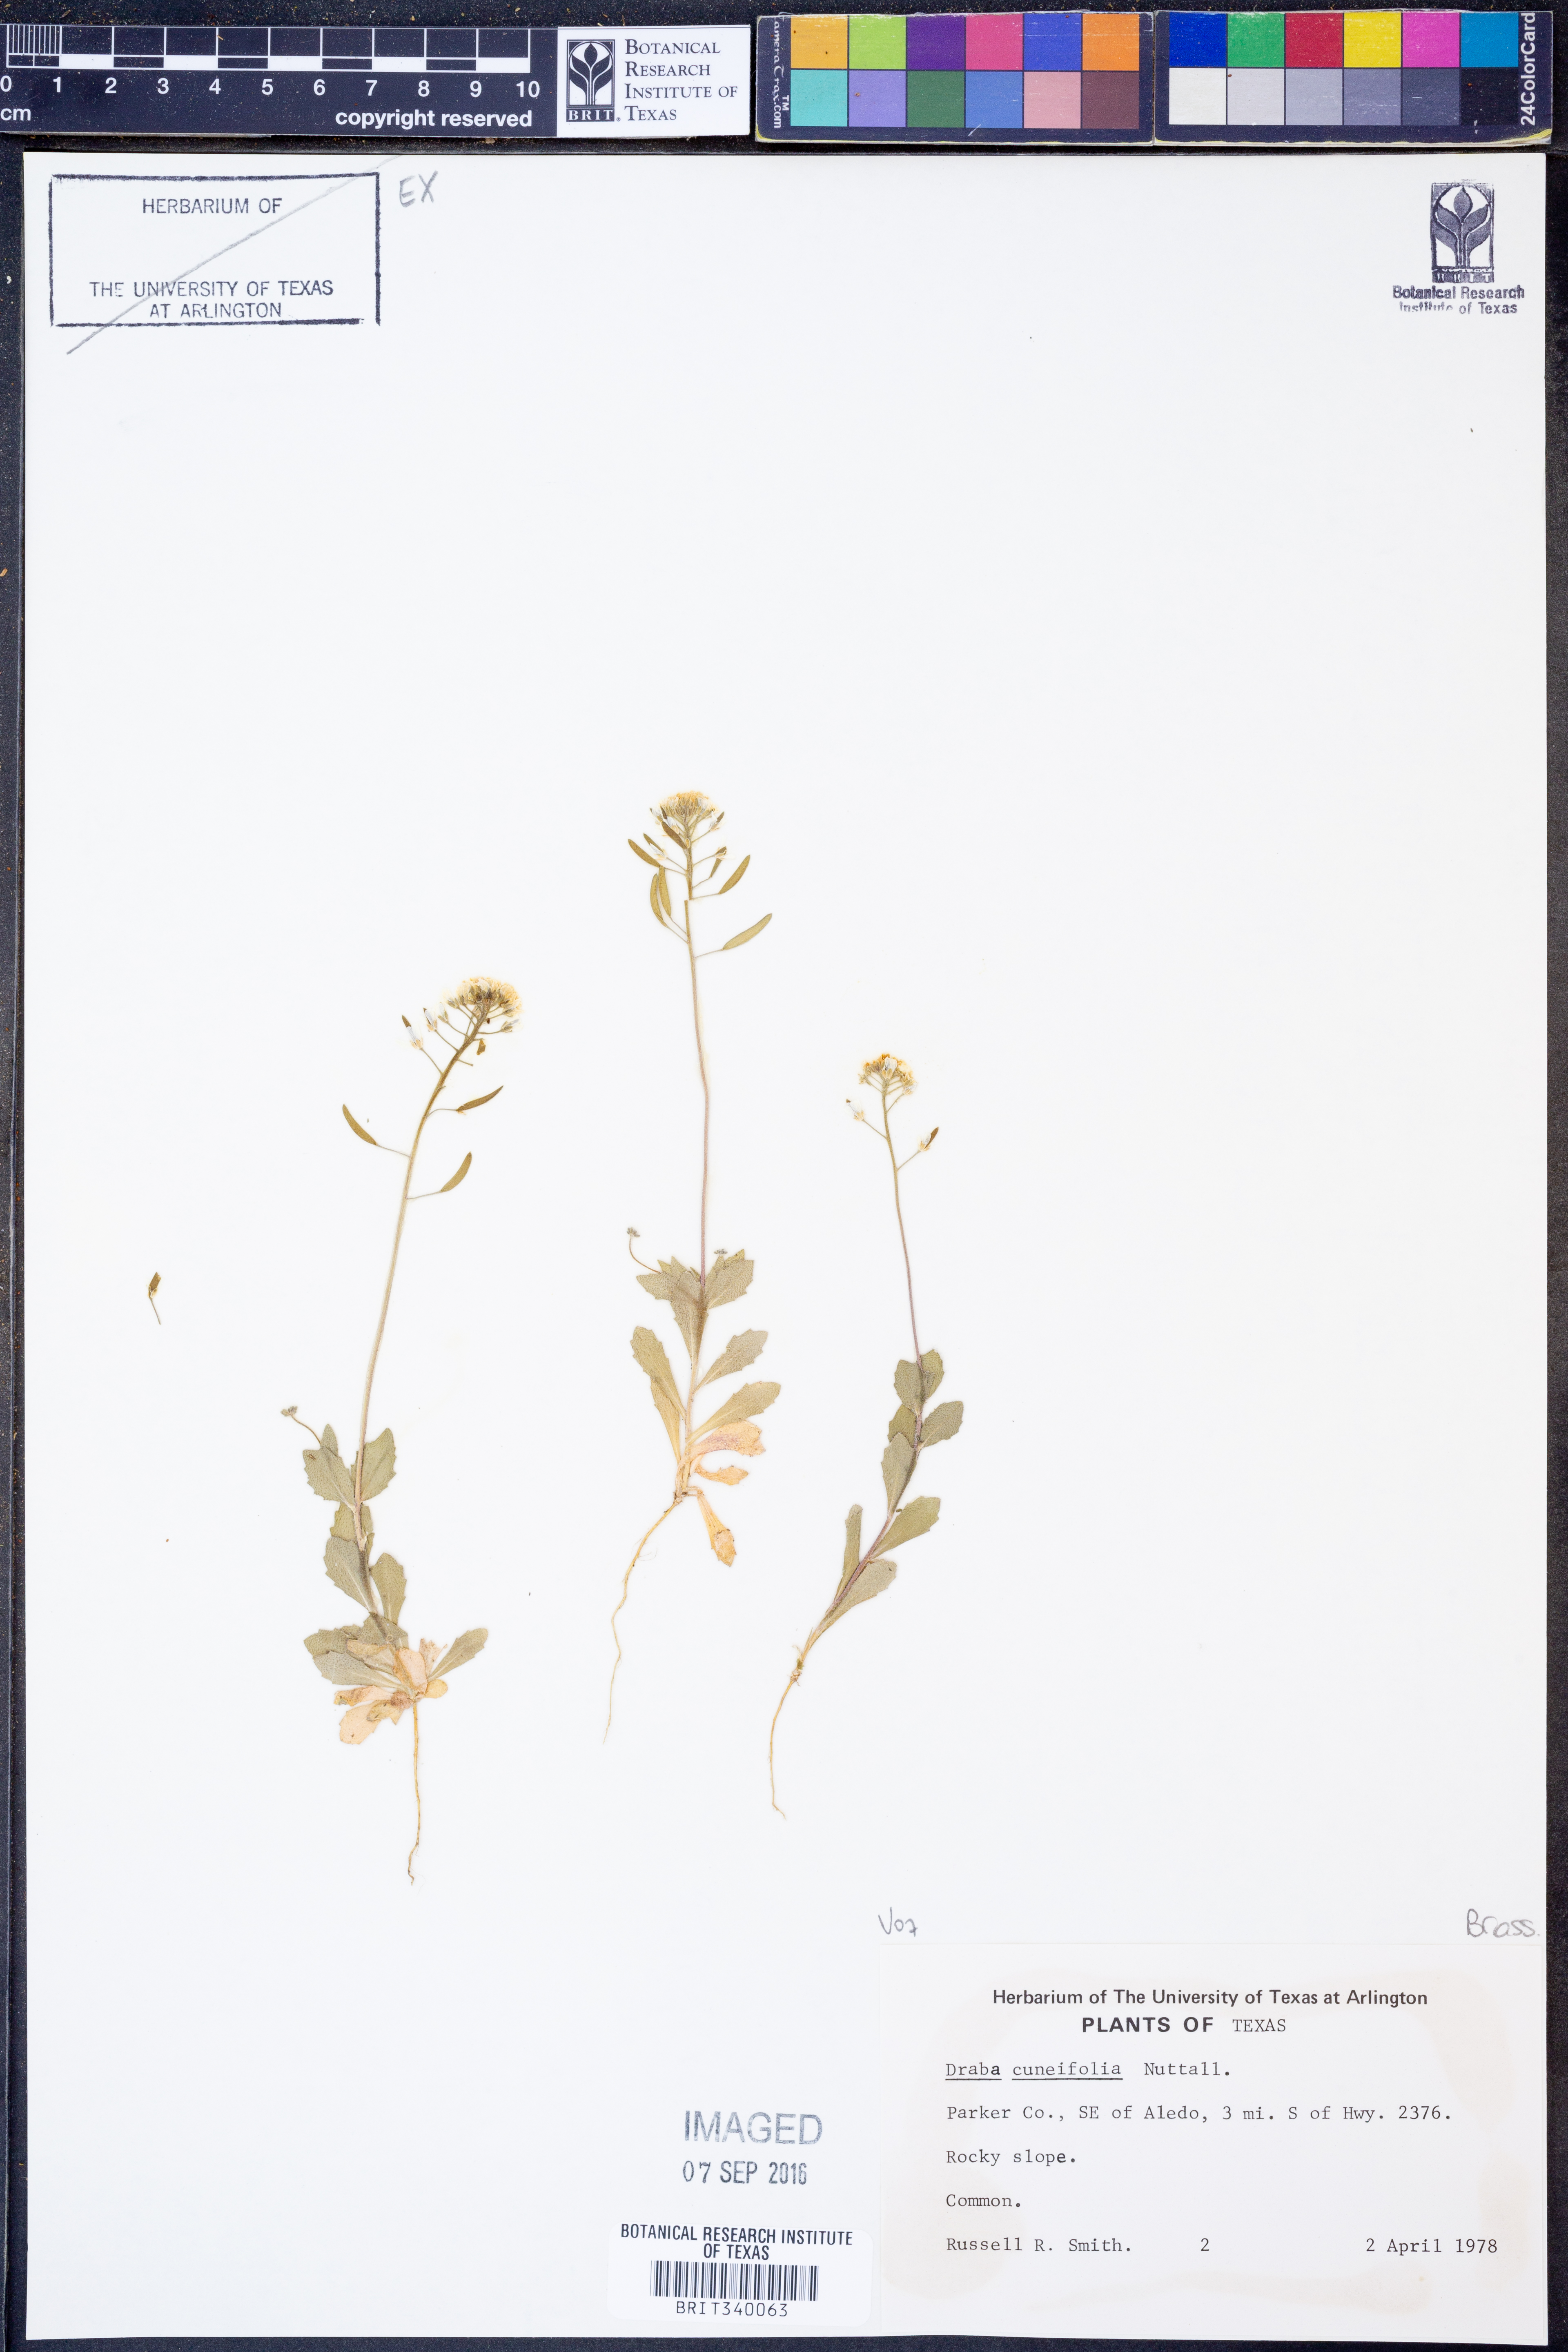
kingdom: Plantae
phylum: Tracheophyta
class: Magnoliopsida
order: Brassicales
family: Brassicaceae
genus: Tomostima
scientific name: Tomostima cuneifolia
